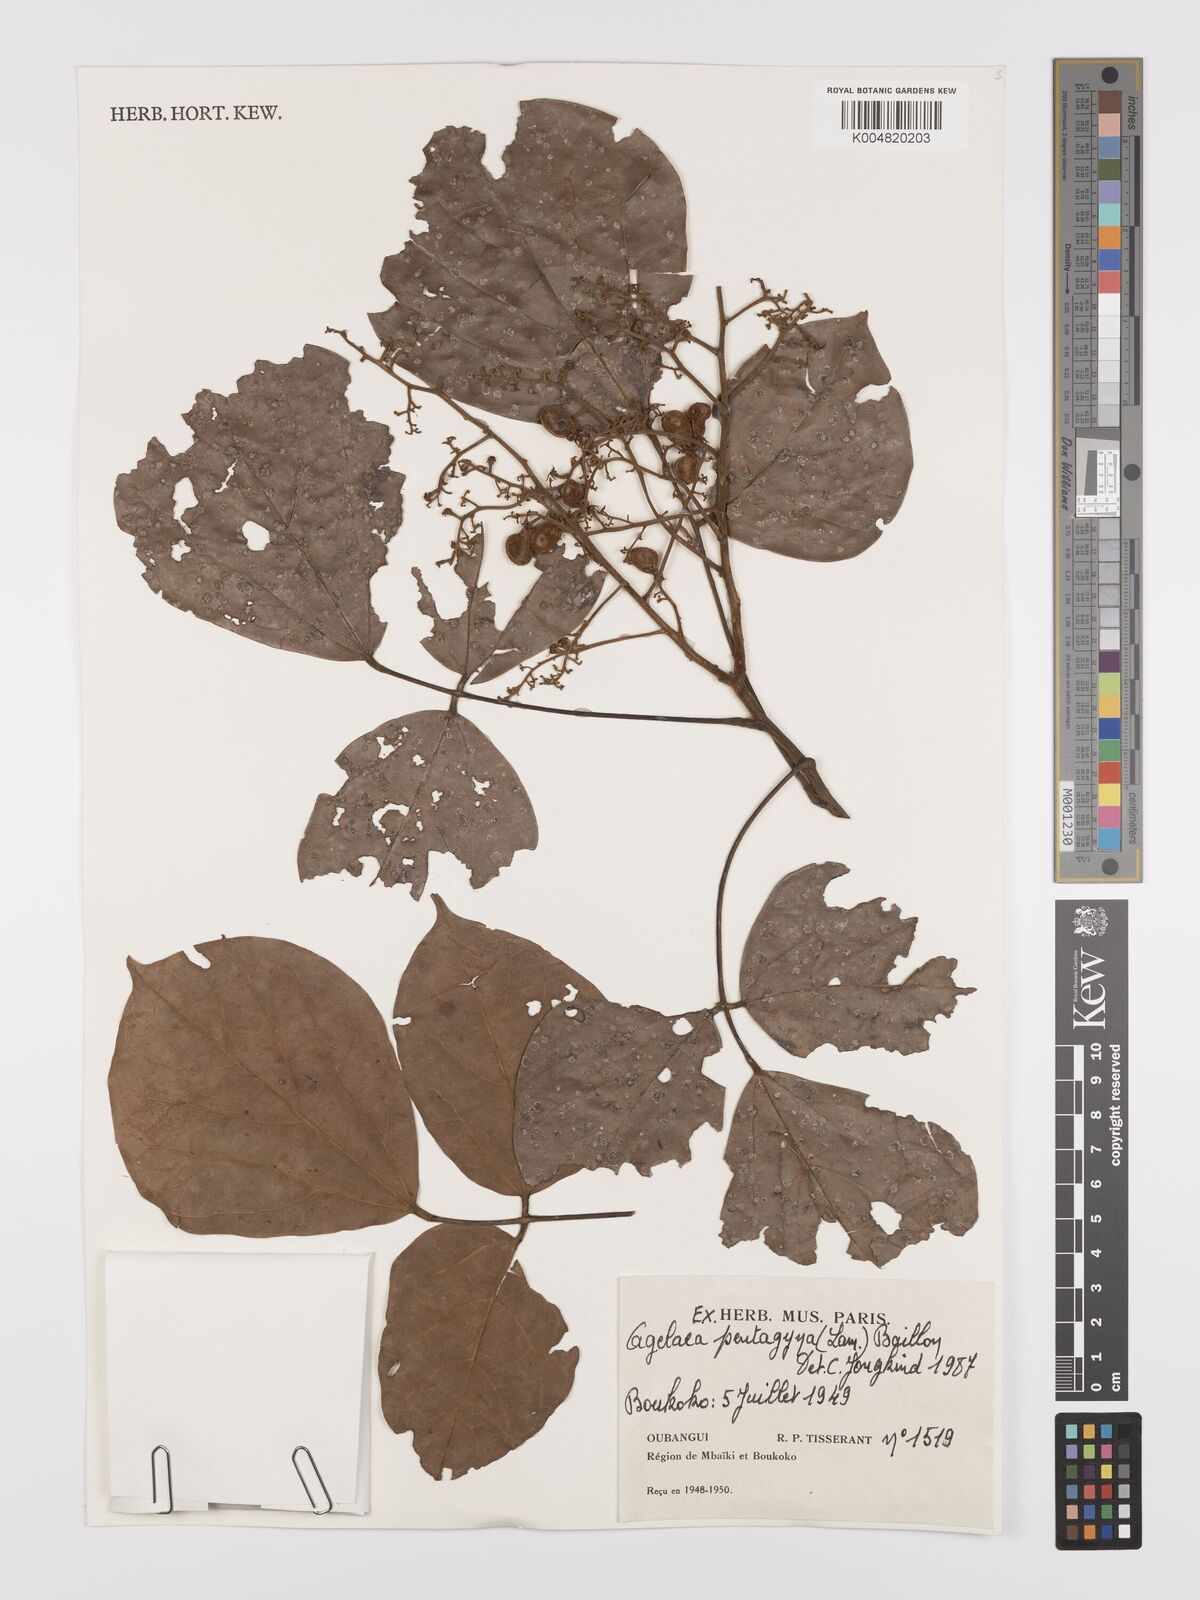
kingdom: Plantae
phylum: Tracheophyta
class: Magnoliopsida
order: Oxalidales
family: Connaraceae
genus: Agelaea
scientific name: Agelaea pentagyna
